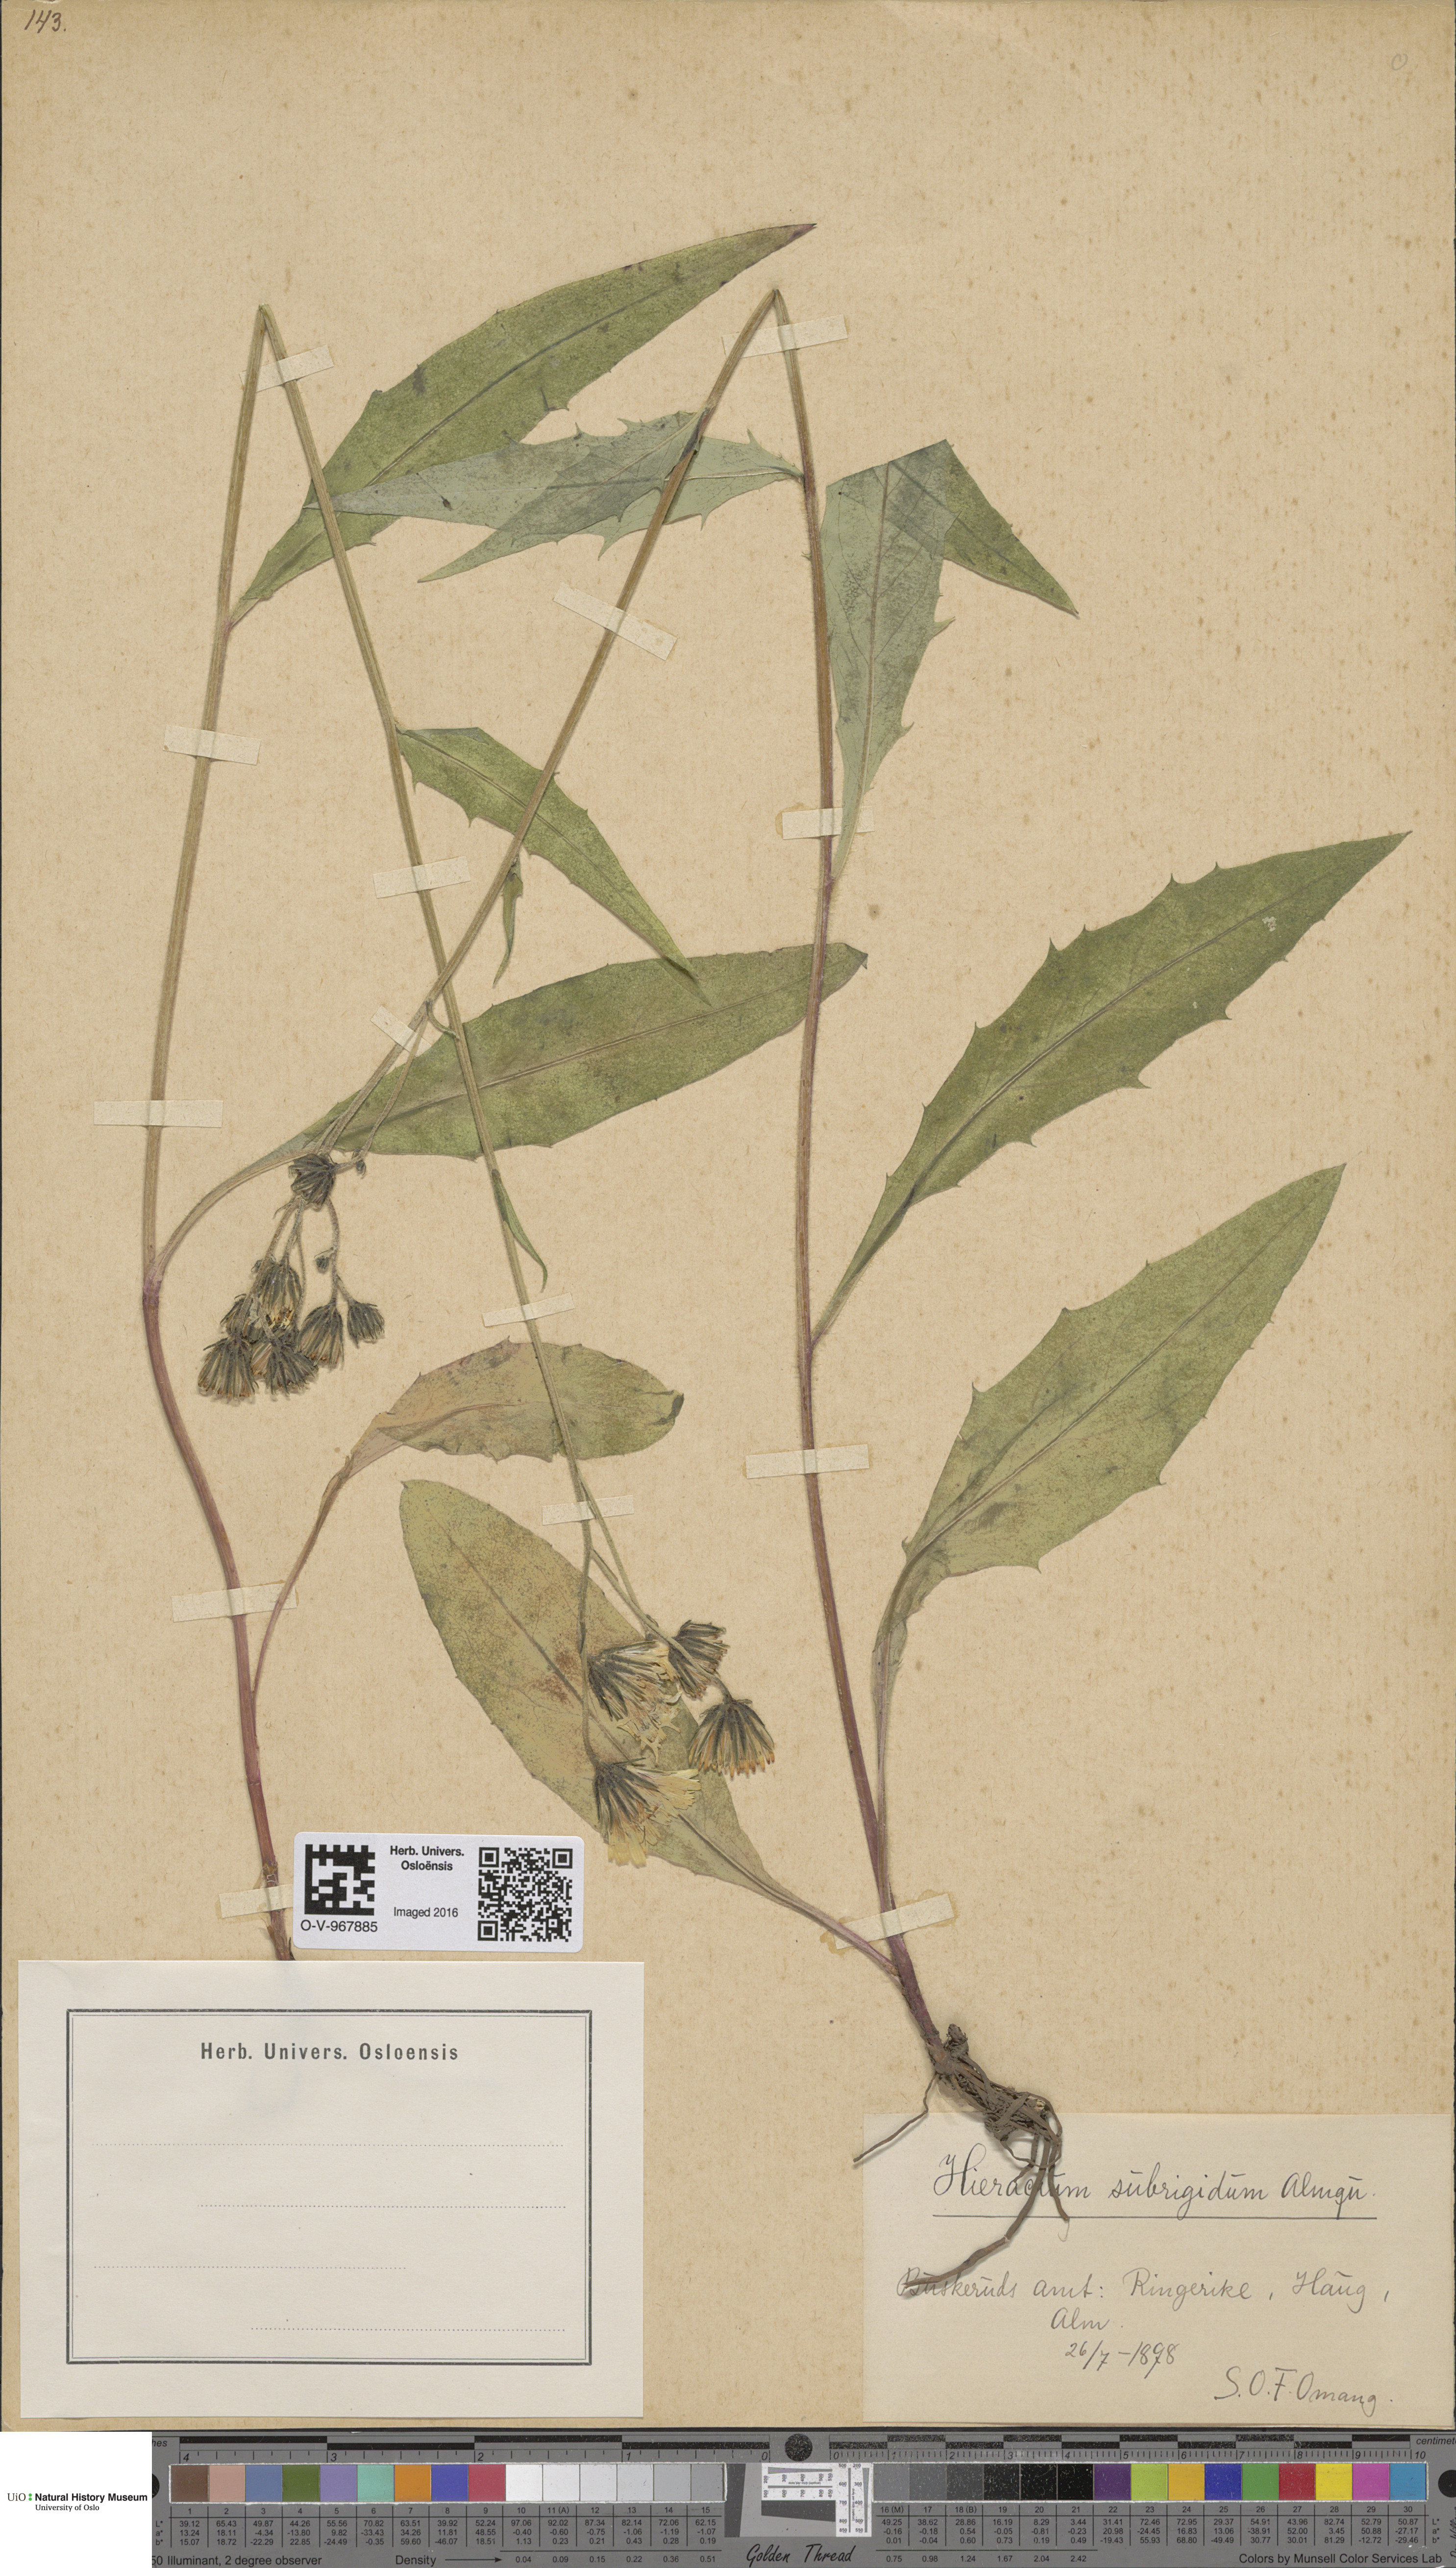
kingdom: Plantae
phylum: Tracheophyta
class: Magnoliopsida
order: Asterales
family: Asteraceae
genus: Hieracium
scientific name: Hieracium subrigidum
